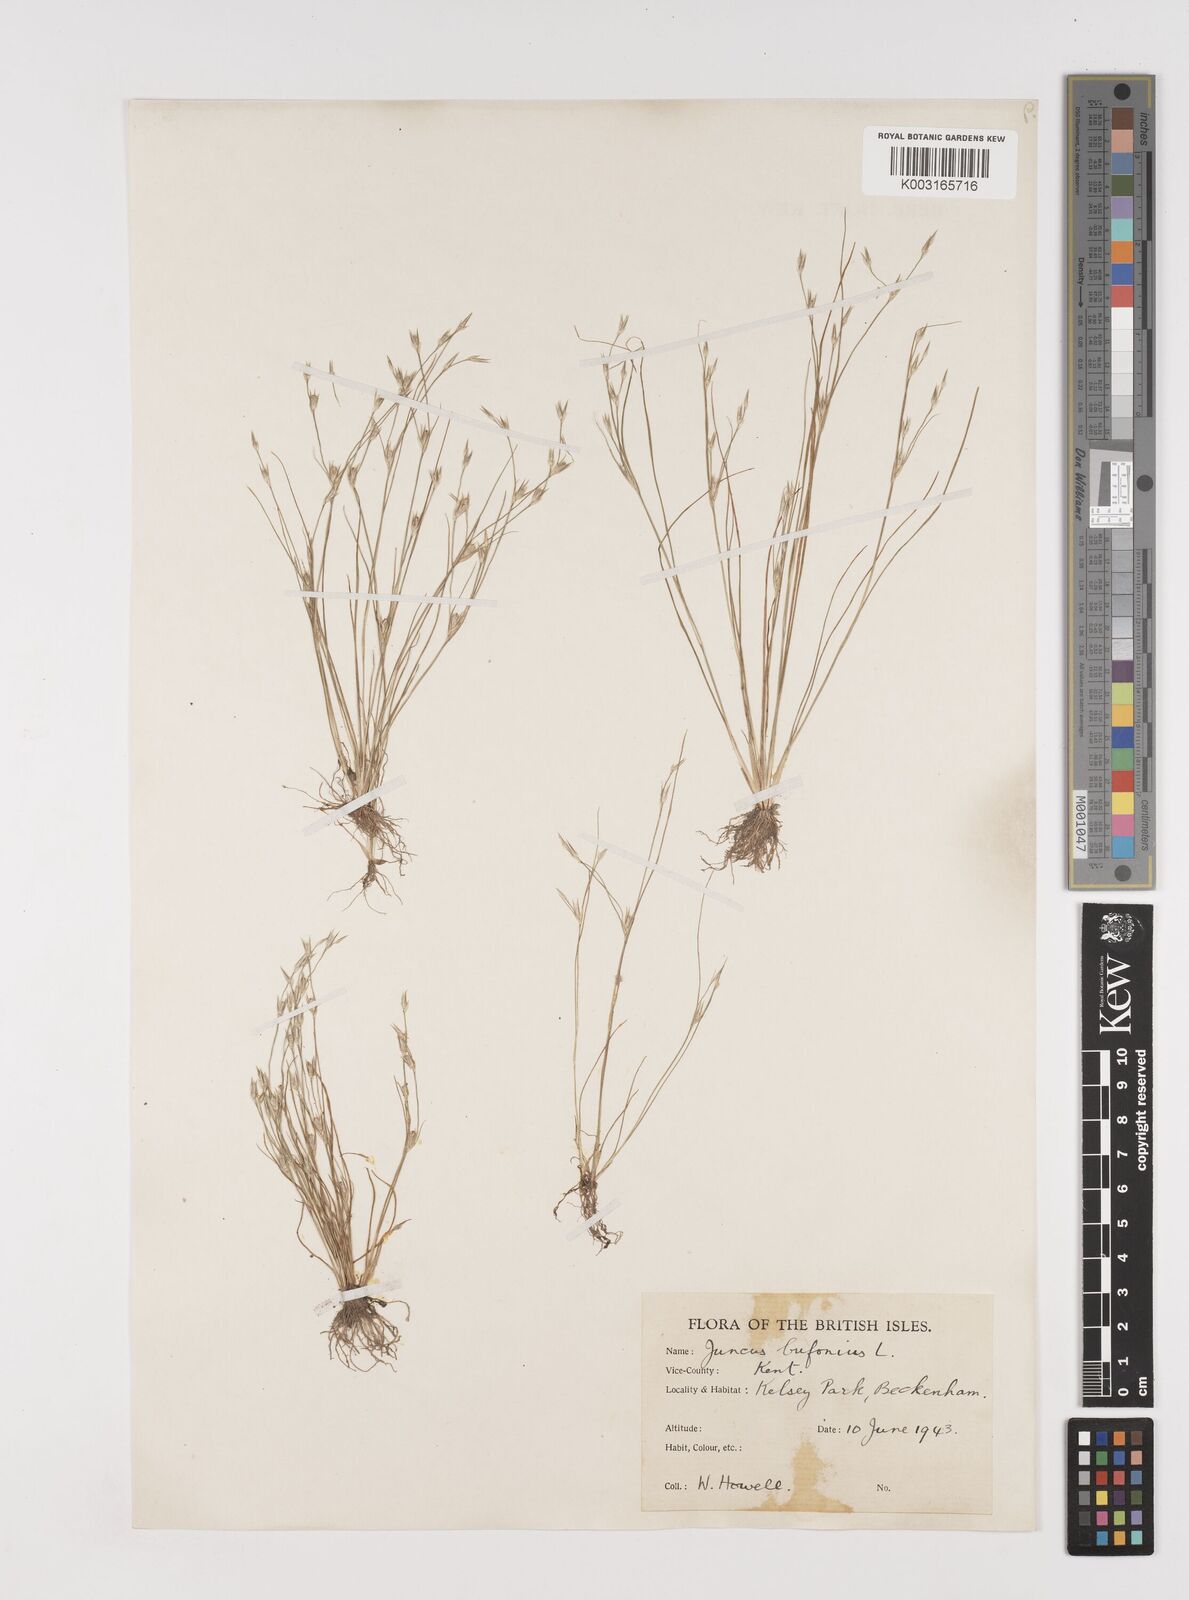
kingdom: Plantae
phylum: Tracheophyta
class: Liliopsida
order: Poales
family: Juncaceae
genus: Juncus
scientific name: Juncus bufonius
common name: Toad rush
